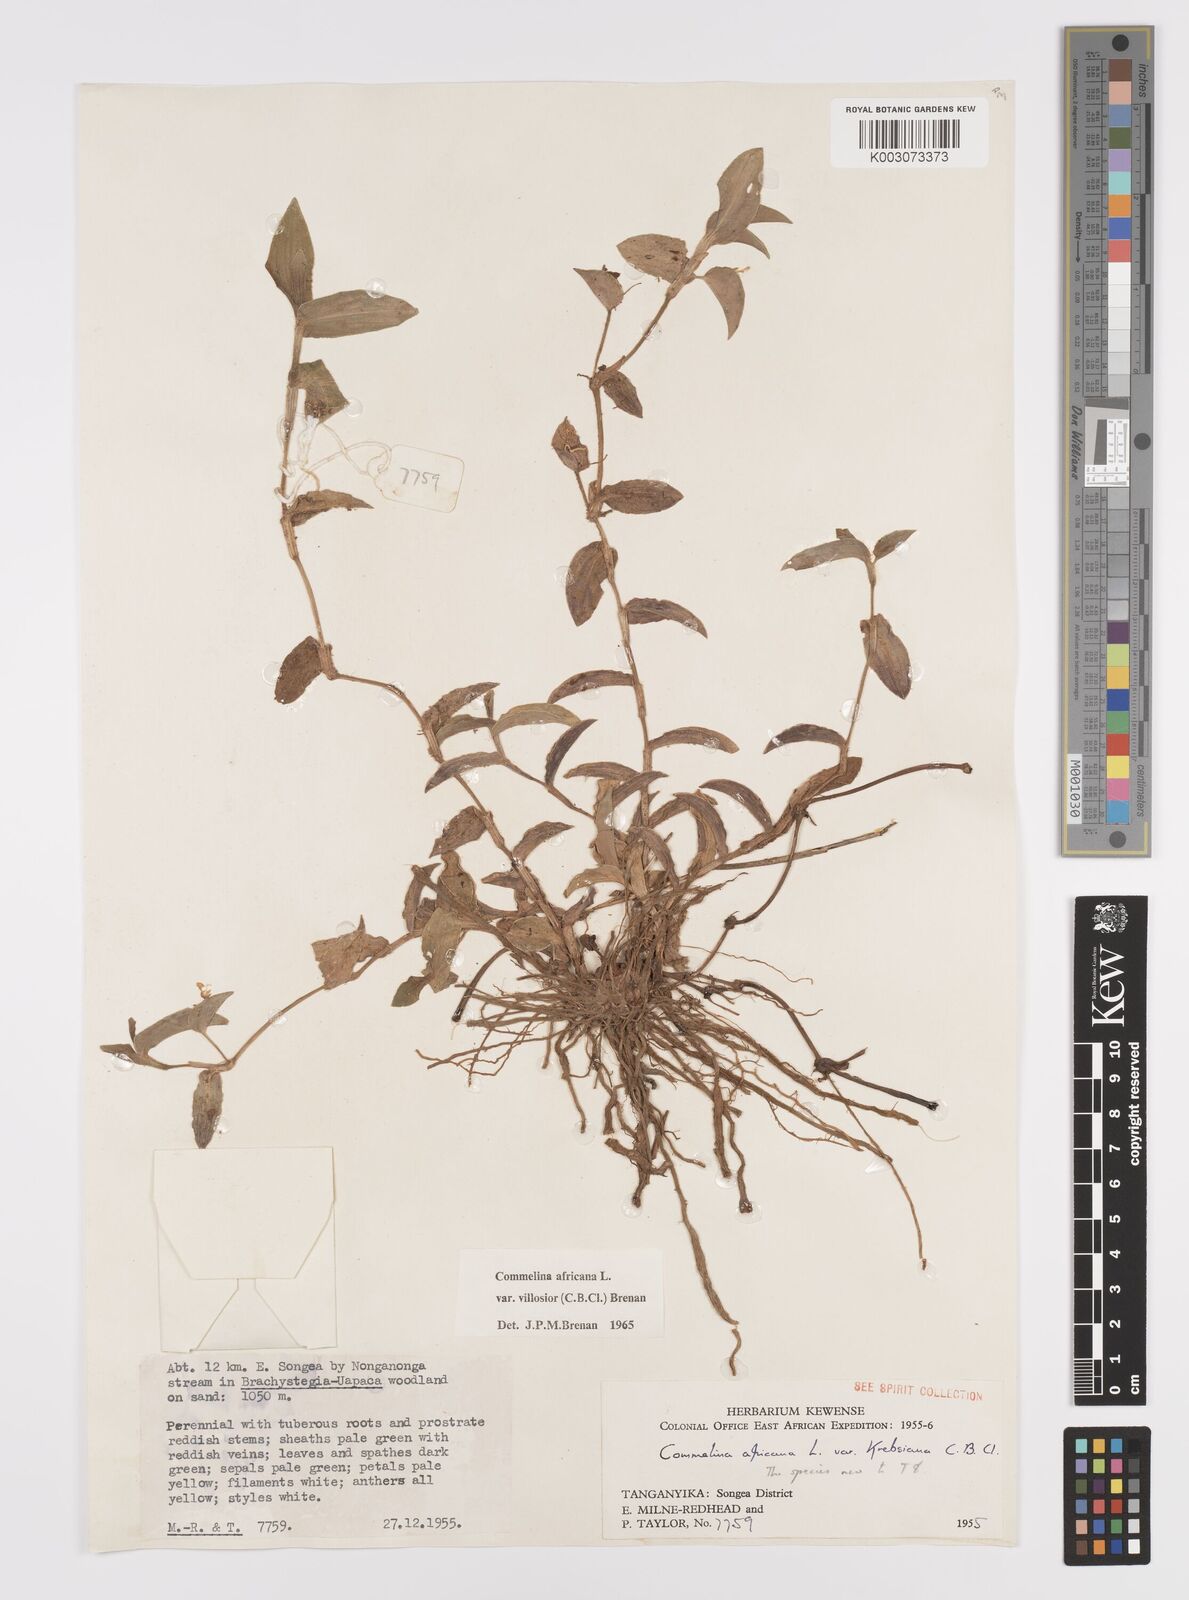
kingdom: Plantae
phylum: Tracheophyta
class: Liliopsida
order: Commelinales
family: Commelinaceae
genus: Commelina
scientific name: Commelina africana
